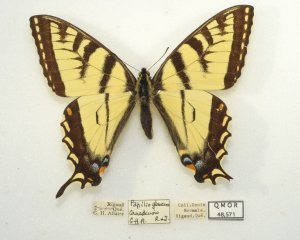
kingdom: Animalia
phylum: Arthropoda
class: Insecta
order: Lepidoptera
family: Papilionidae
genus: Pterourus
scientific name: Pterourus canadensis
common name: Canadian Tiger Swallowtail
